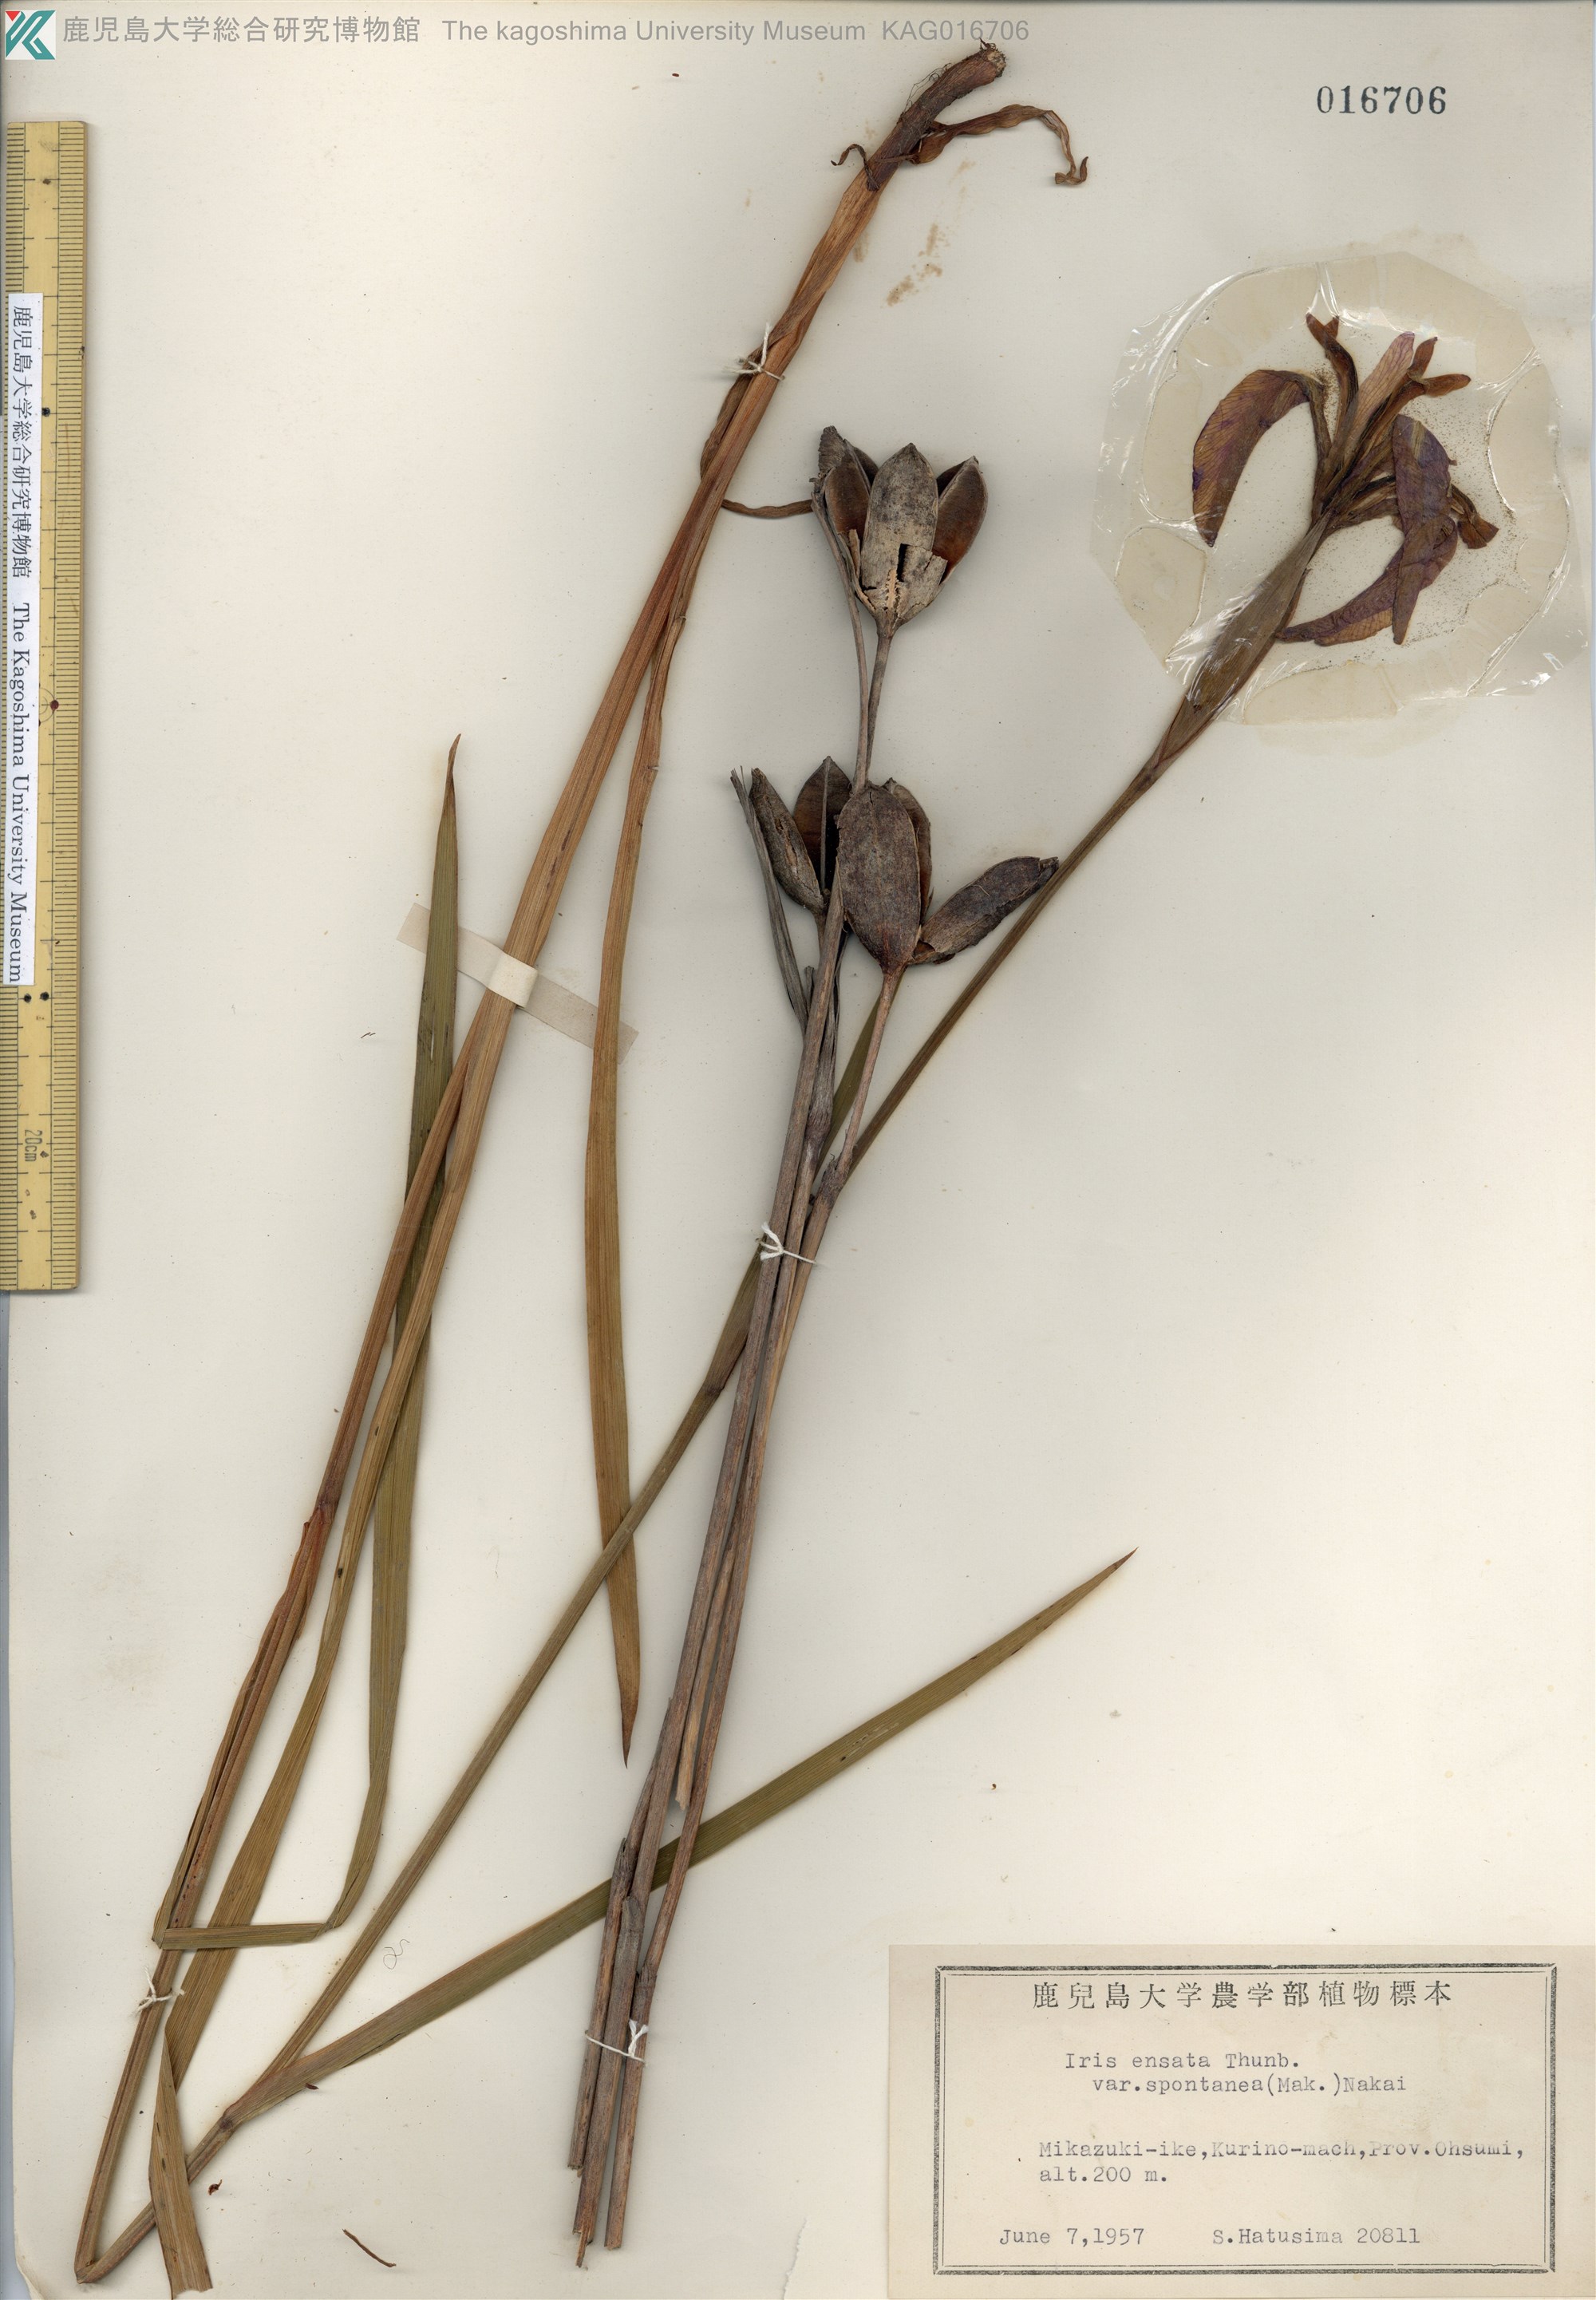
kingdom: Plantae
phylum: Tracheophyta
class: Liliopsida
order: Asparagales
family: Iridaceae
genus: Iris
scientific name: Iris ensata
